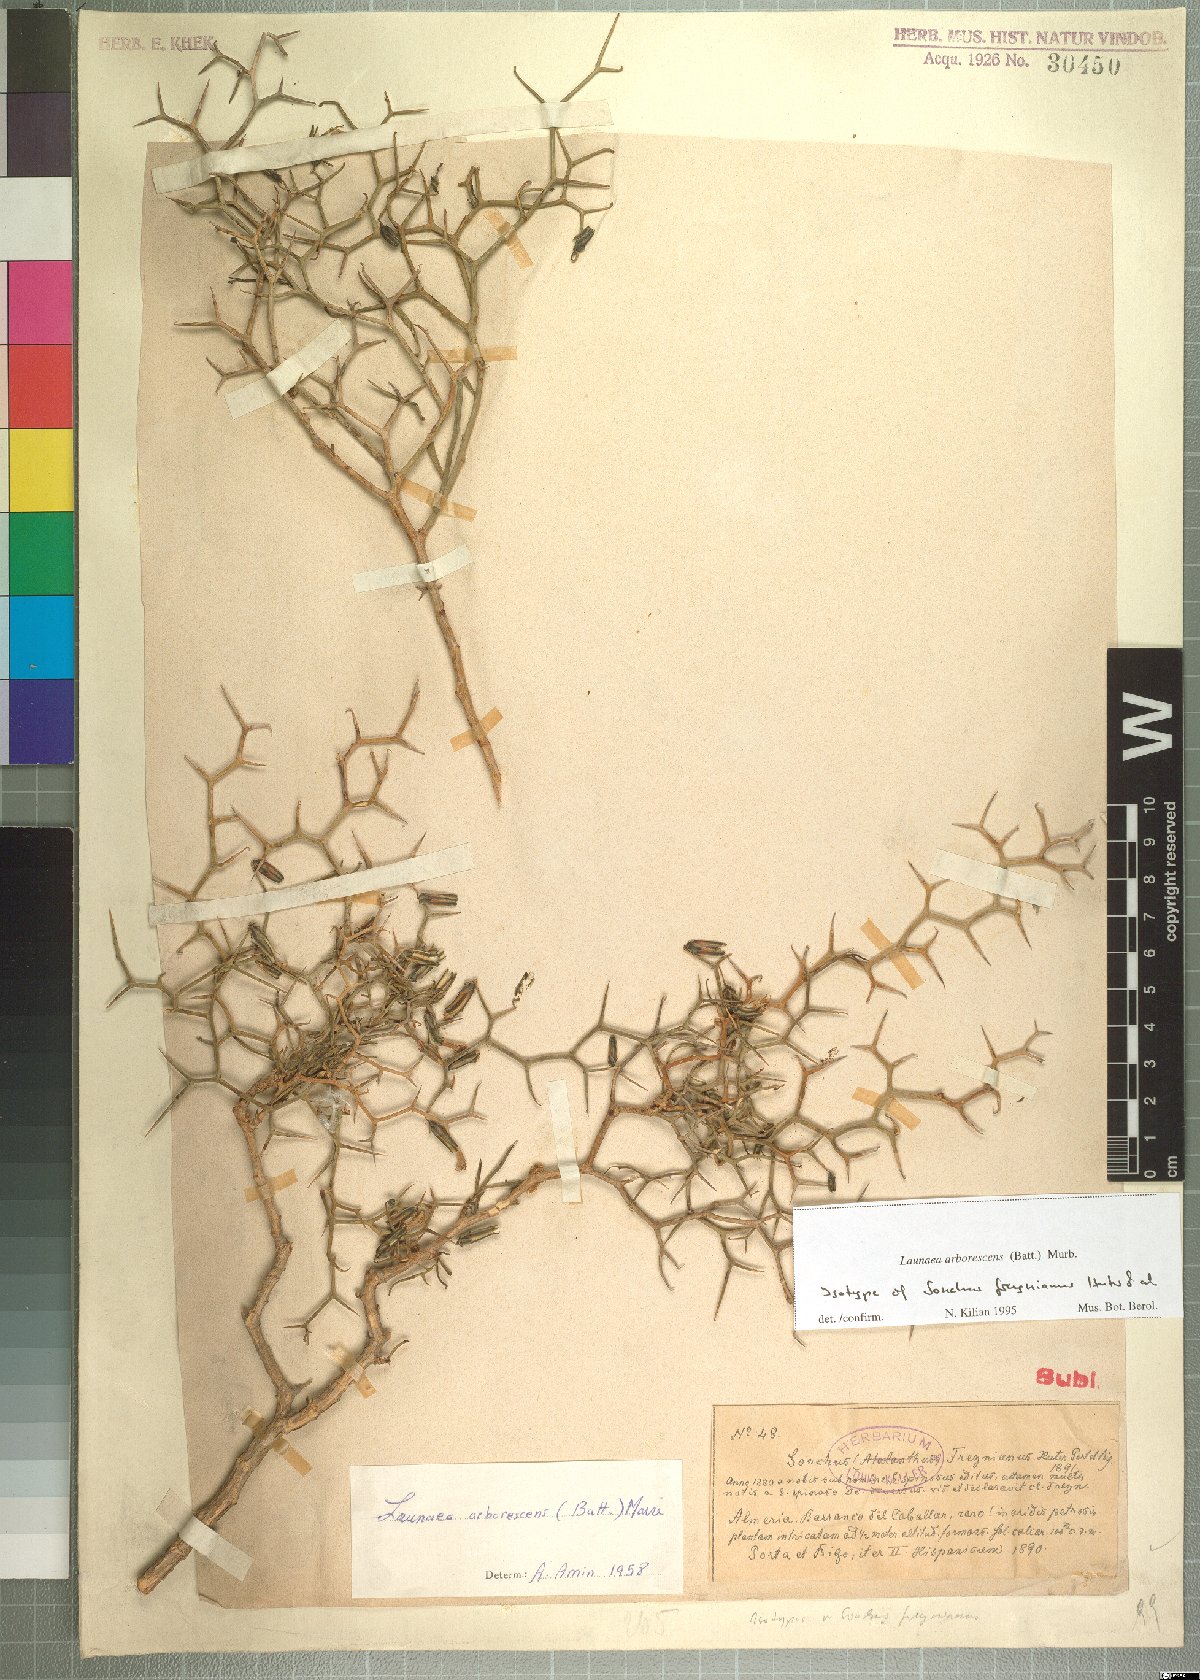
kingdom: Plantae
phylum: Tracheophyta
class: Magnoliopsida
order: Asterales
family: Asteraceae
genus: Launaea
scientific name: Launaea arborescens
